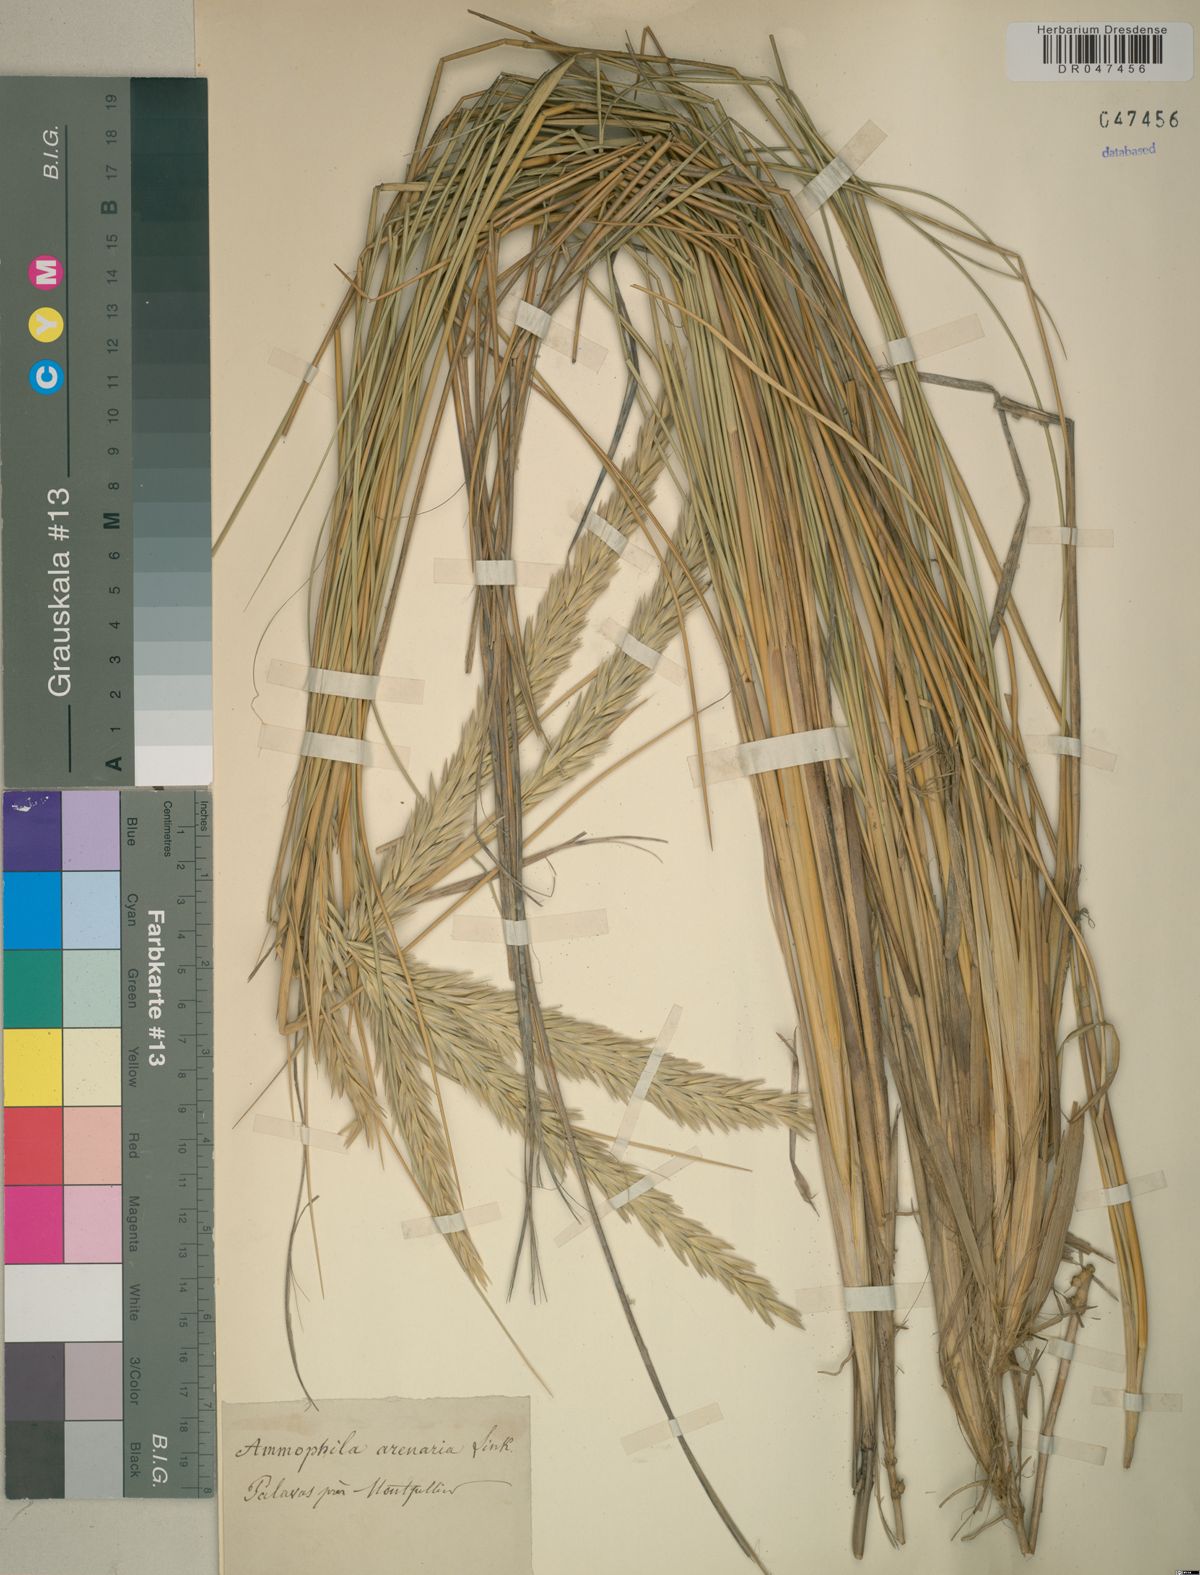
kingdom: Plantae
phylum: Tracheophyta
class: Liliopsida
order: Poales
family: Poaceae
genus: Calamagrostis
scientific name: Calamagrostis arenaria
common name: European beachgrass
